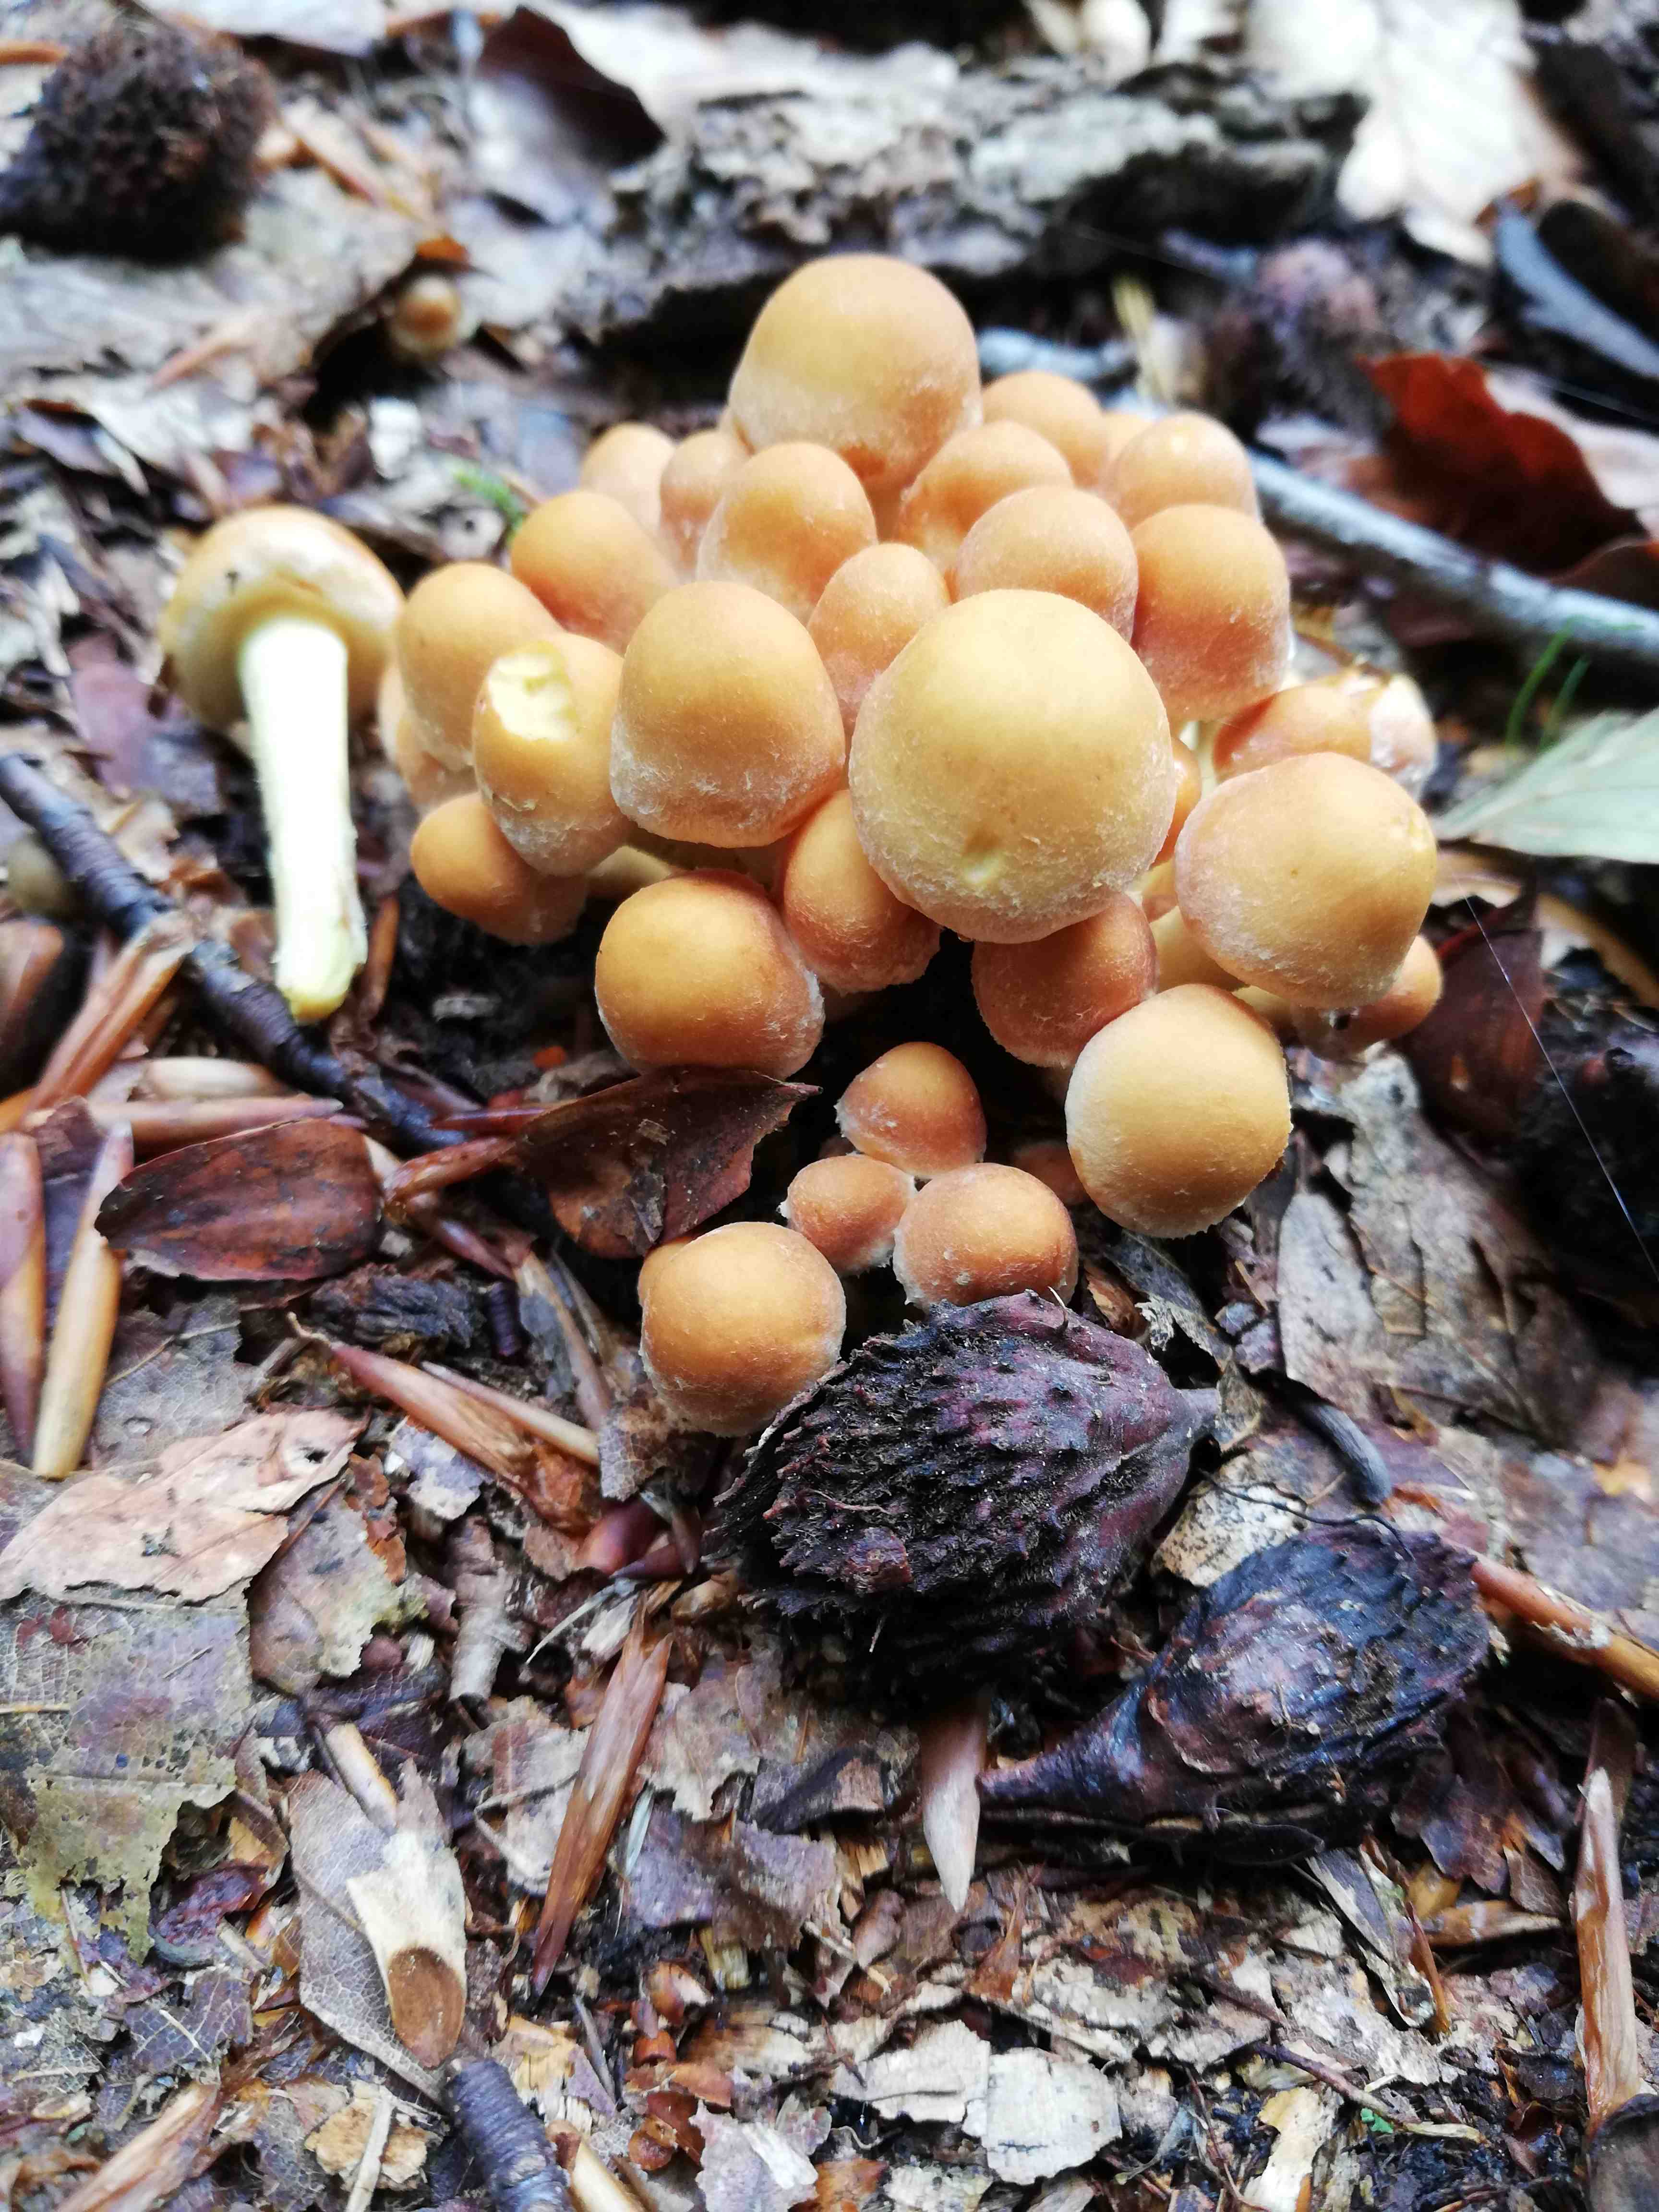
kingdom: Fungi
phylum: Basidiomycota
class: Agaricomycetes
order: Agaricales
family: Strophariaceae
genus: Hypholoma
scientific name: Hypholoma fasciculare
